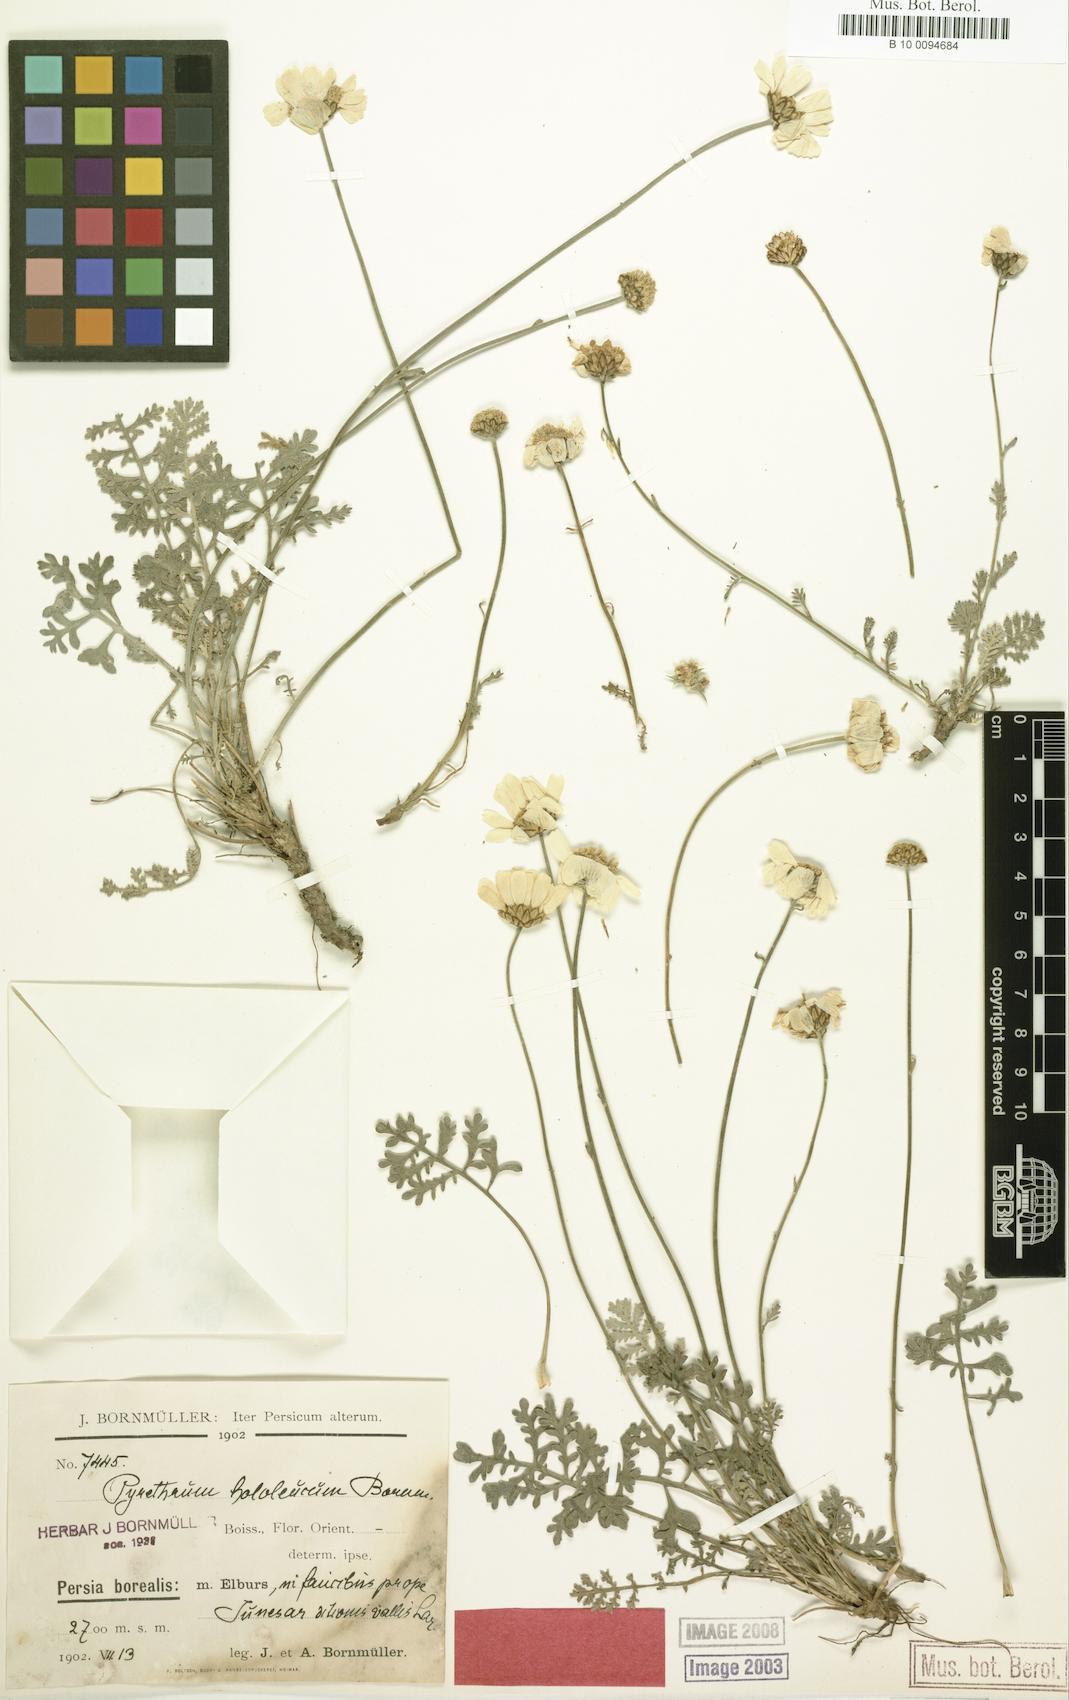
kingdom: Plantae
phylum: Tracheophyta
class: Magnoliopsida
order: Asterales
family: Asteraceae
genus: Tanacetum
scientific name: Tanacetum hololeucum
